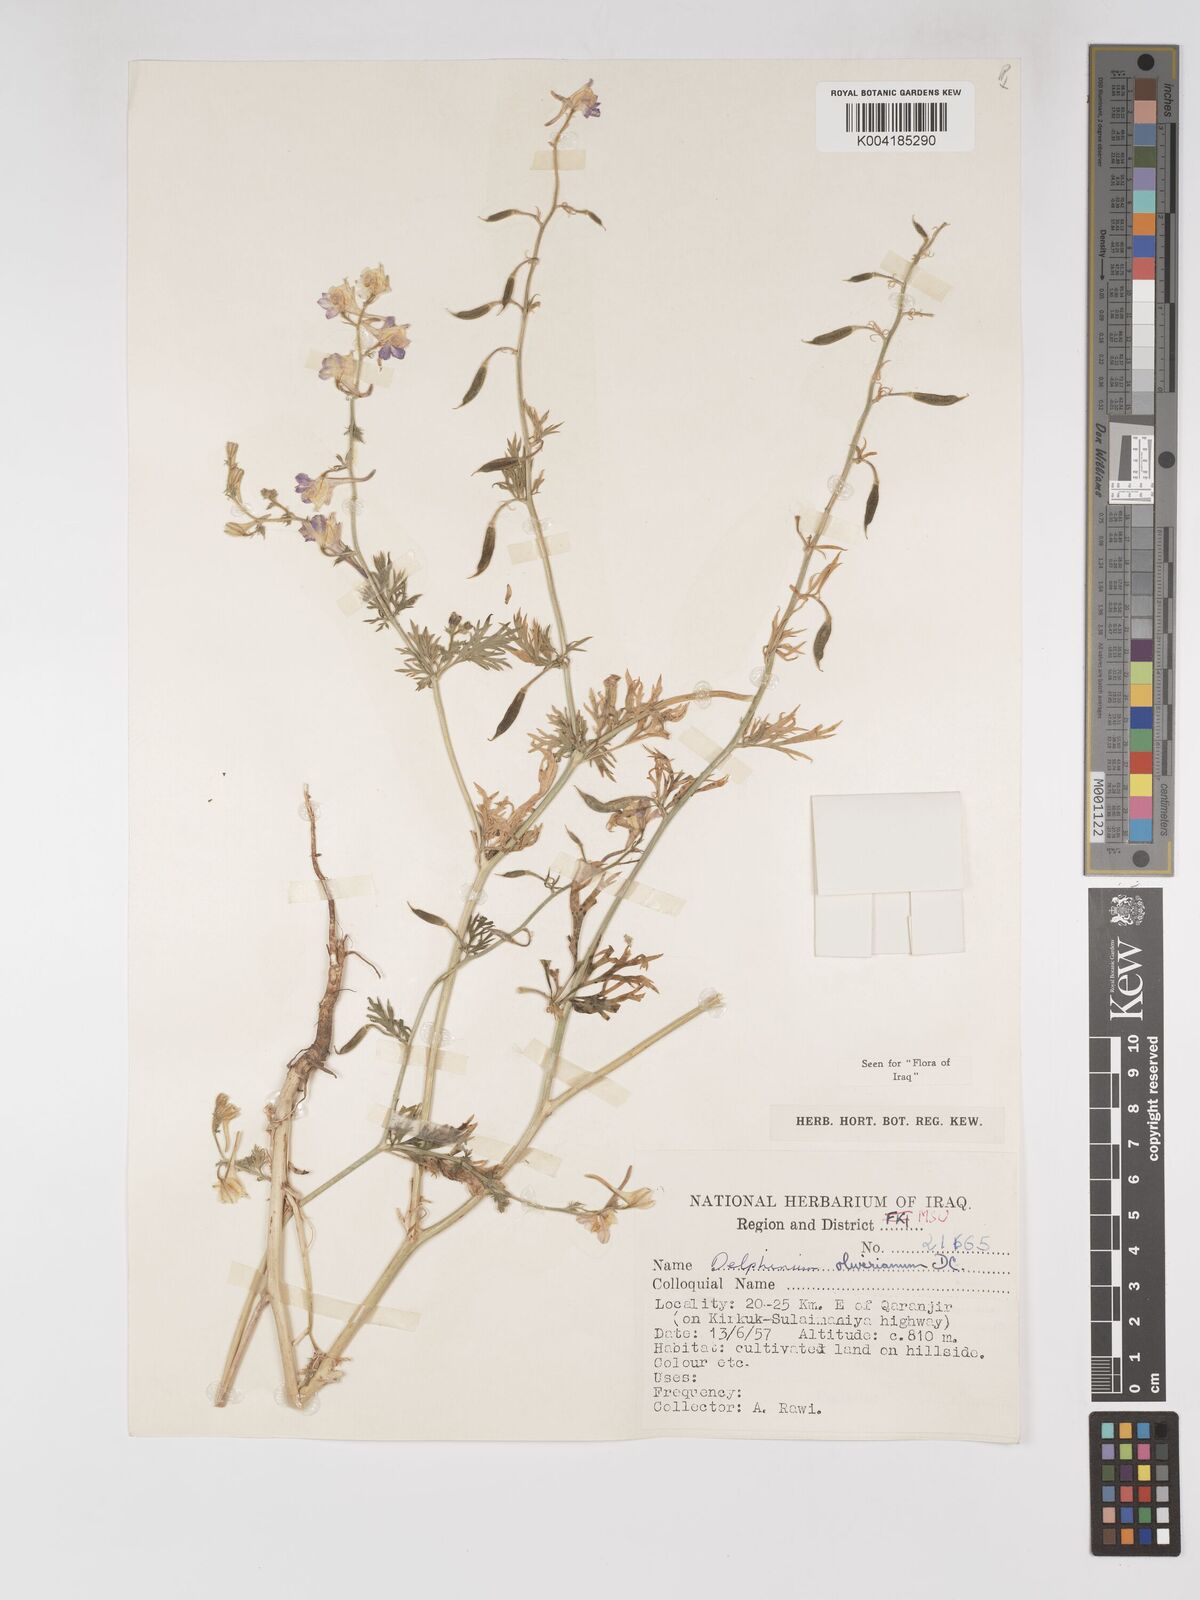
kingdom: Plantae
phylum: Tracheophyta
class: Magnoliopsida
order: Ranunculales
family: Ranunculaceae
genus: Delphinium
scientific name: Delphinium oliverianum
